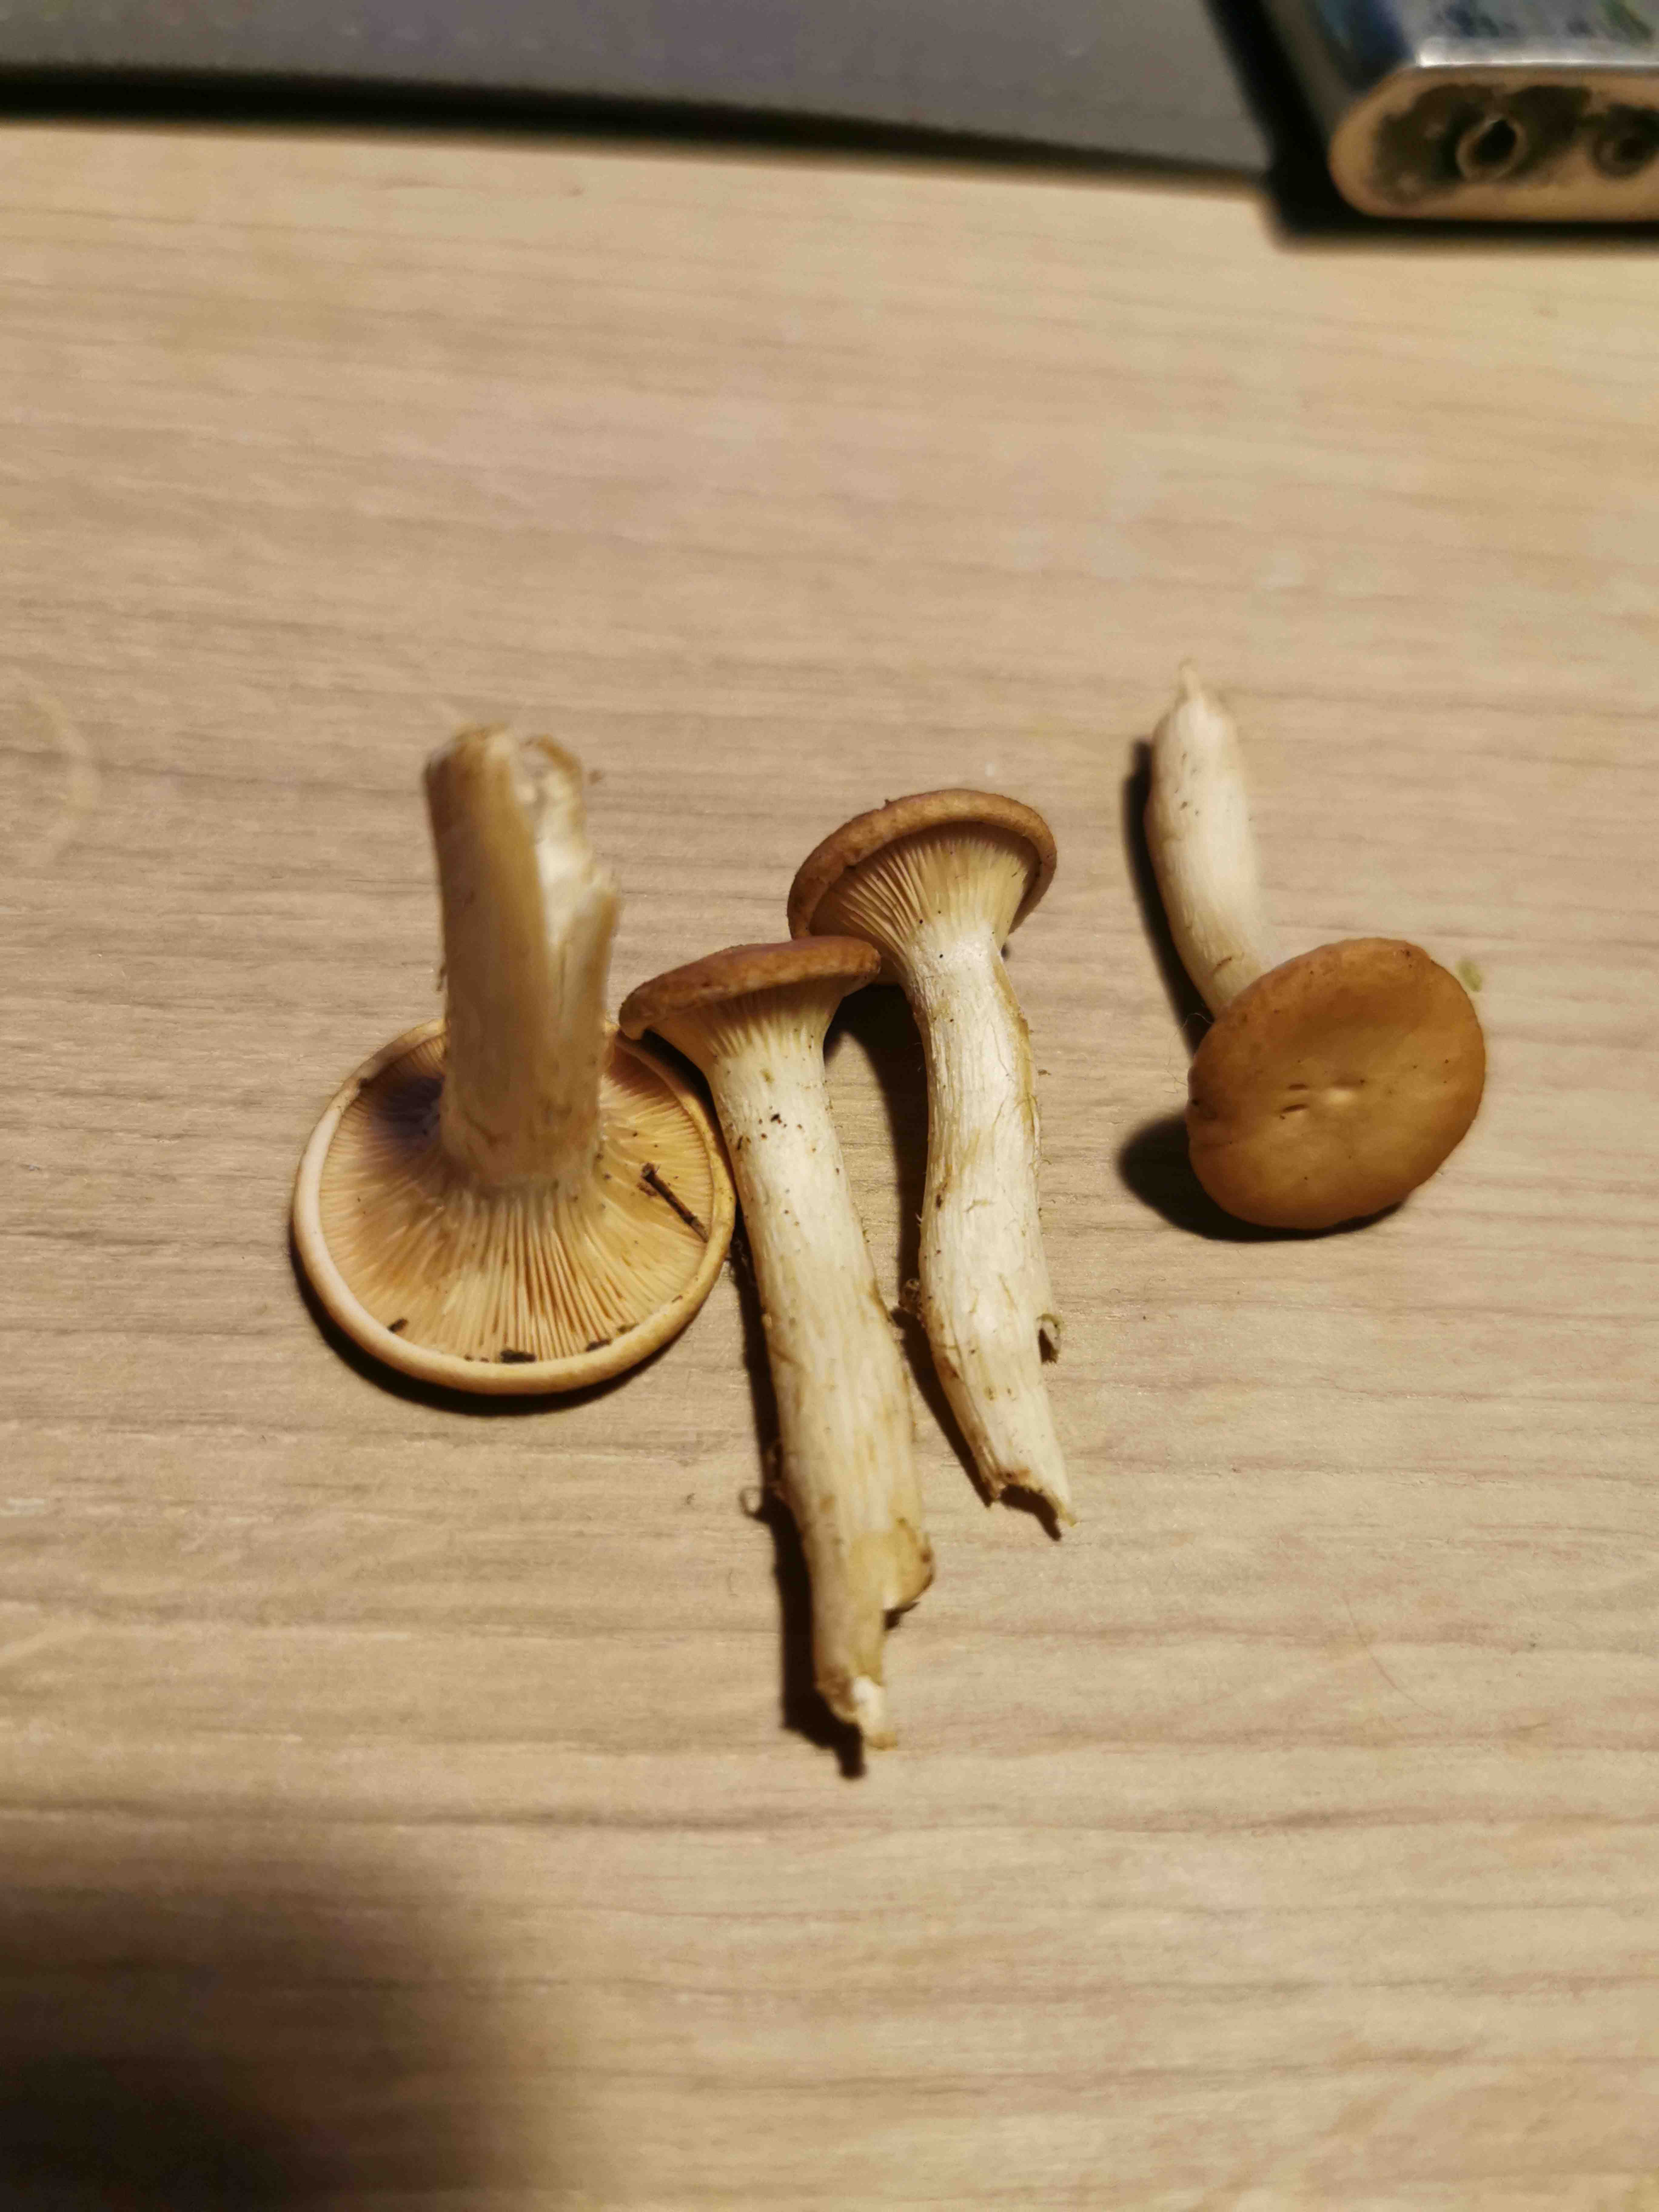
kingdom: Fungi
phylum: Basidiomycota
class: Agaricomycetes
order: Agaricales
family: Tricholomataceae
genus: Paralepista
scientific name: Paralepista gilva
